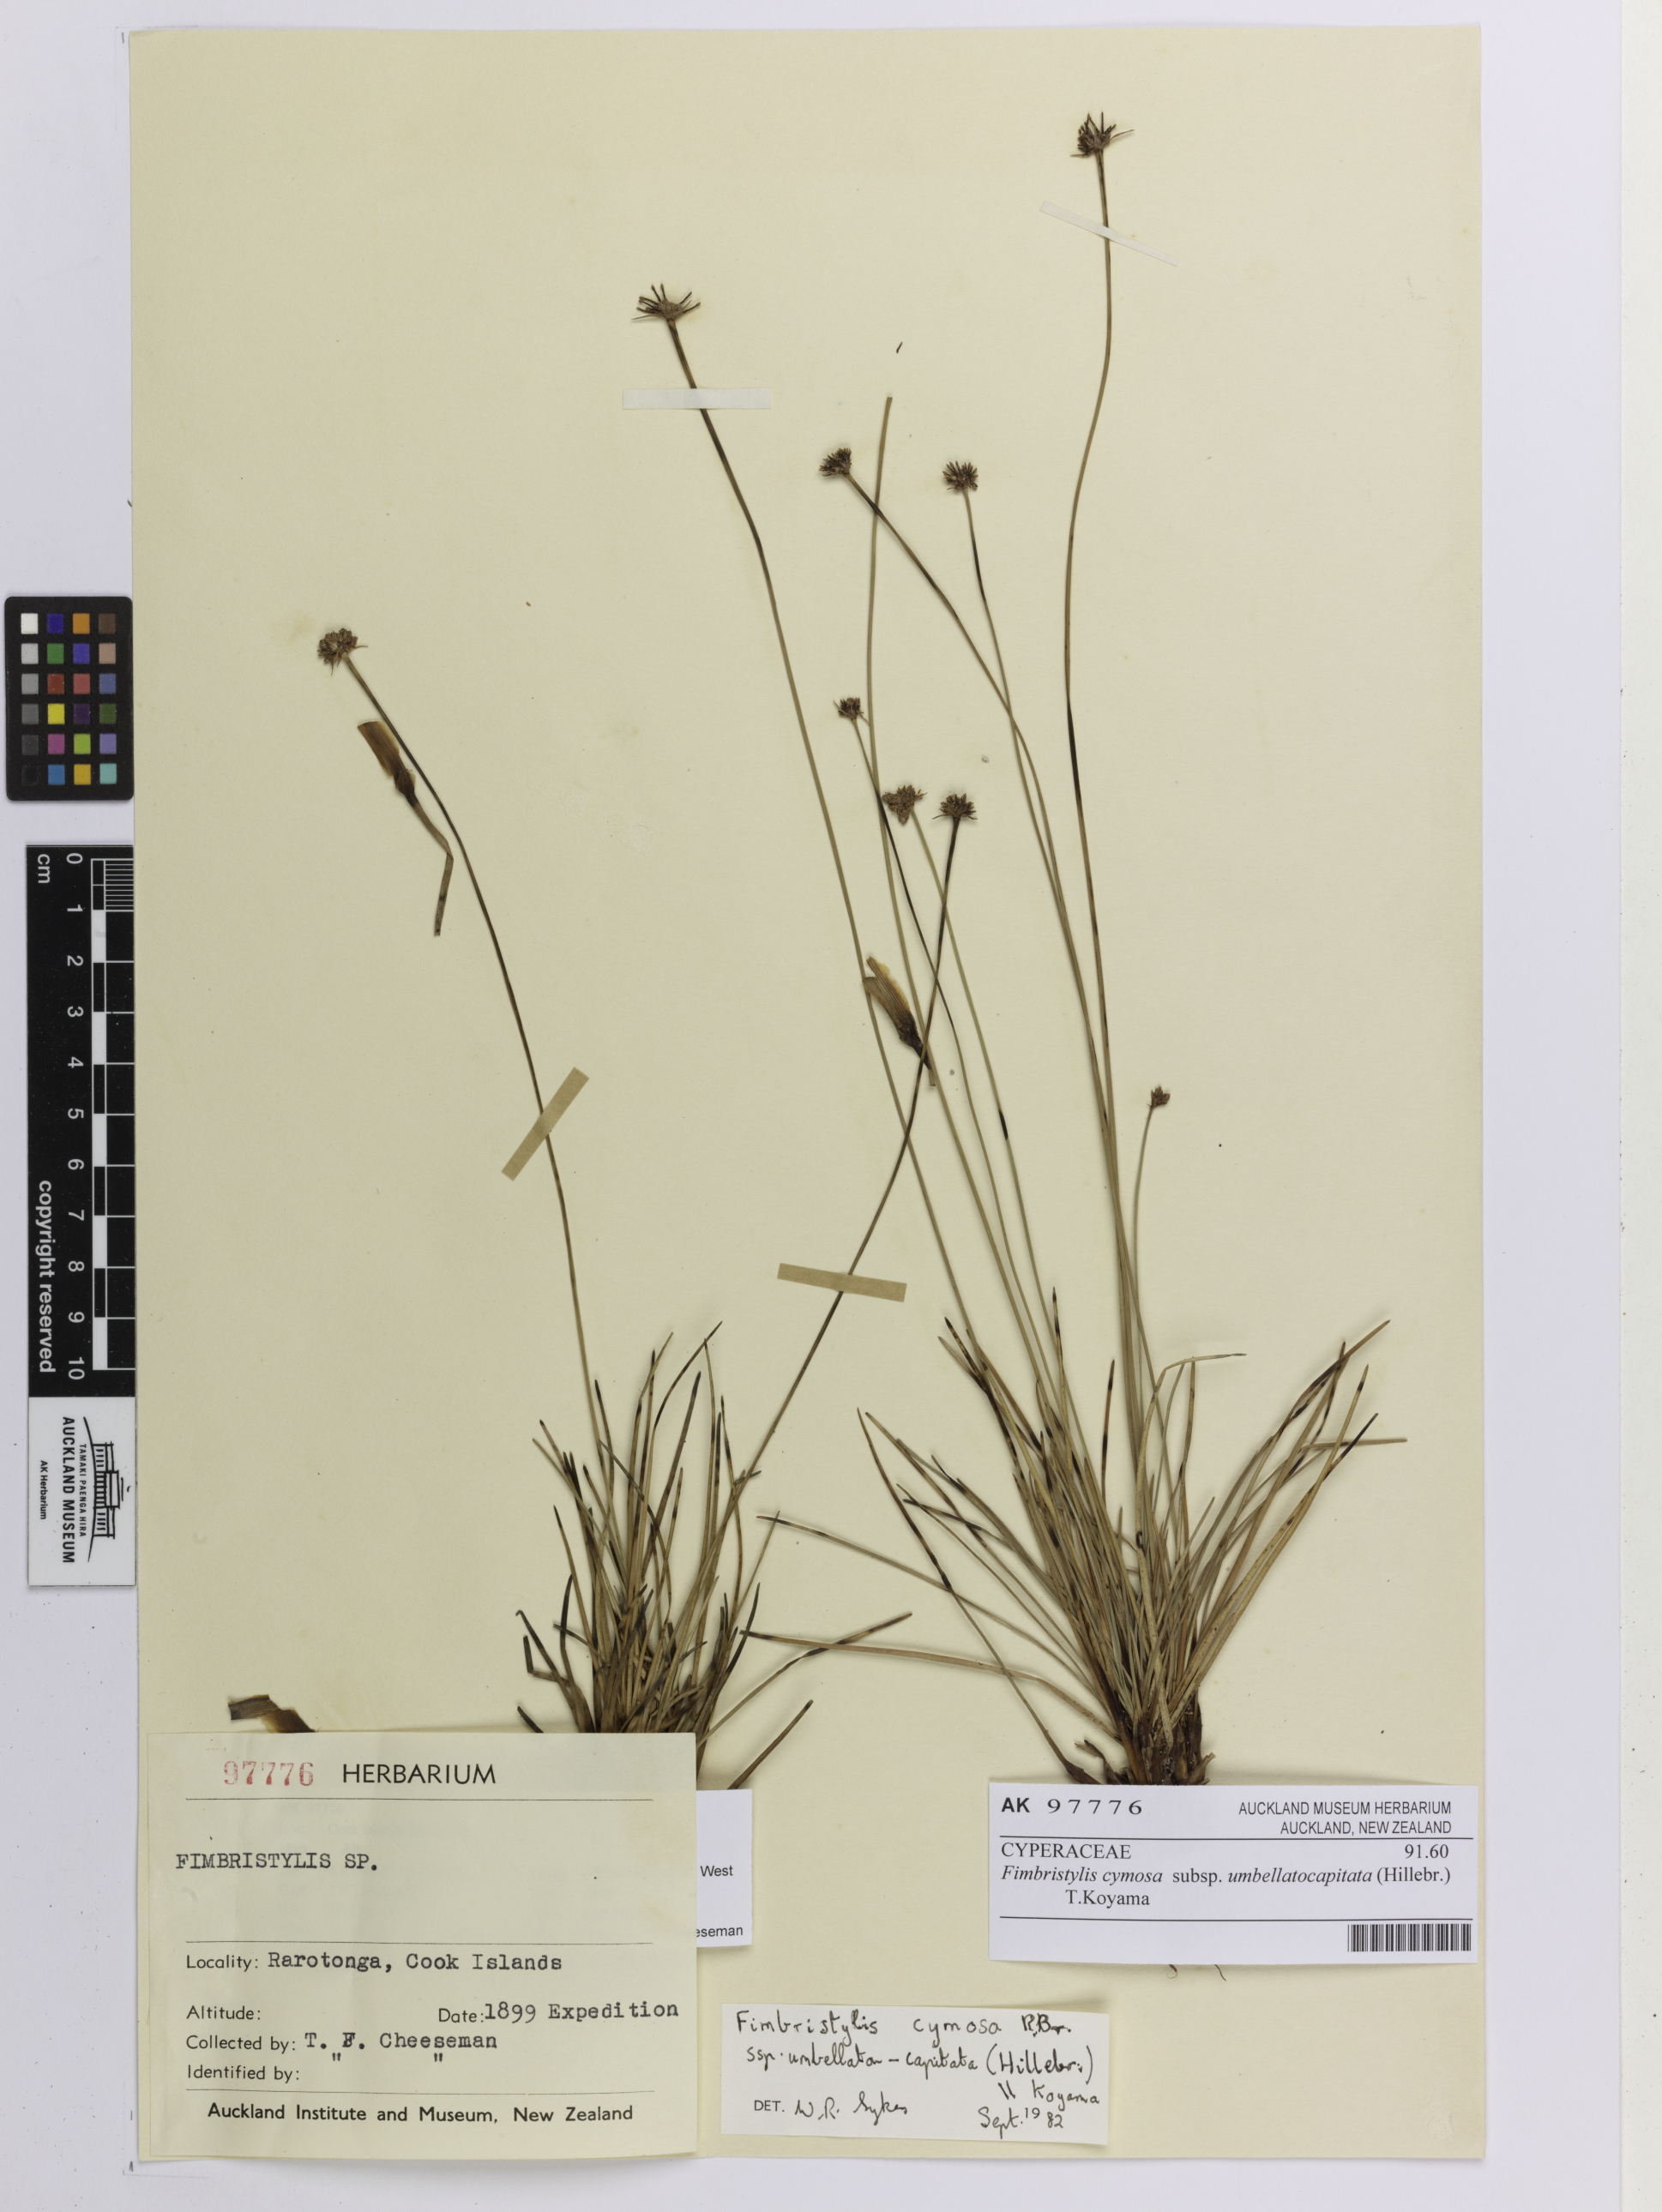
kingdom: Plantae
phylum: Tracheophyta
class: Liliopsida
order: Poales
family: Cyperaceae
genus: Fimbristylis
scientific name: Fimbristylis cymosa
